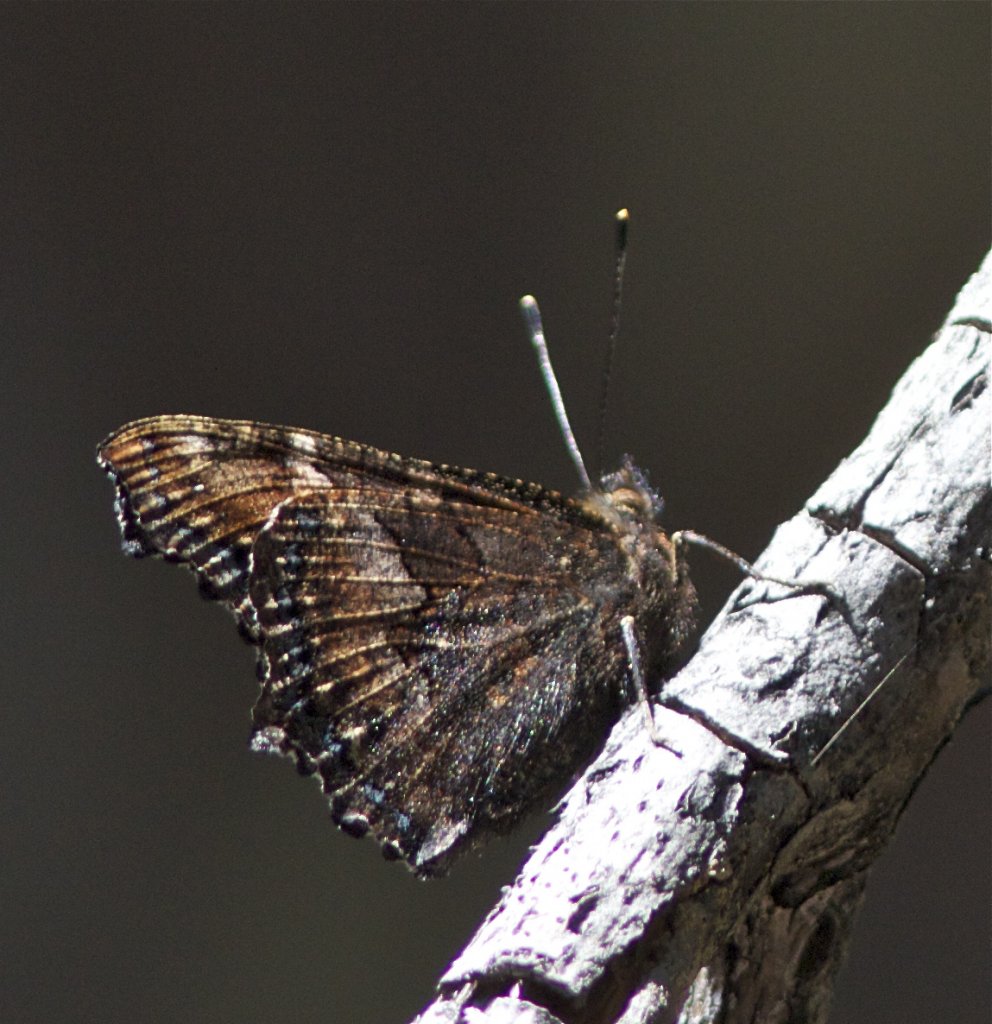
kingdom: Animalia
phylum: Arthropoda
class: Insecta
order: Lepidoptera
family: Nymphalidae
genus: Nymphalis
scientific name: Nymphalis californica
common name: California Tortoiseshell
